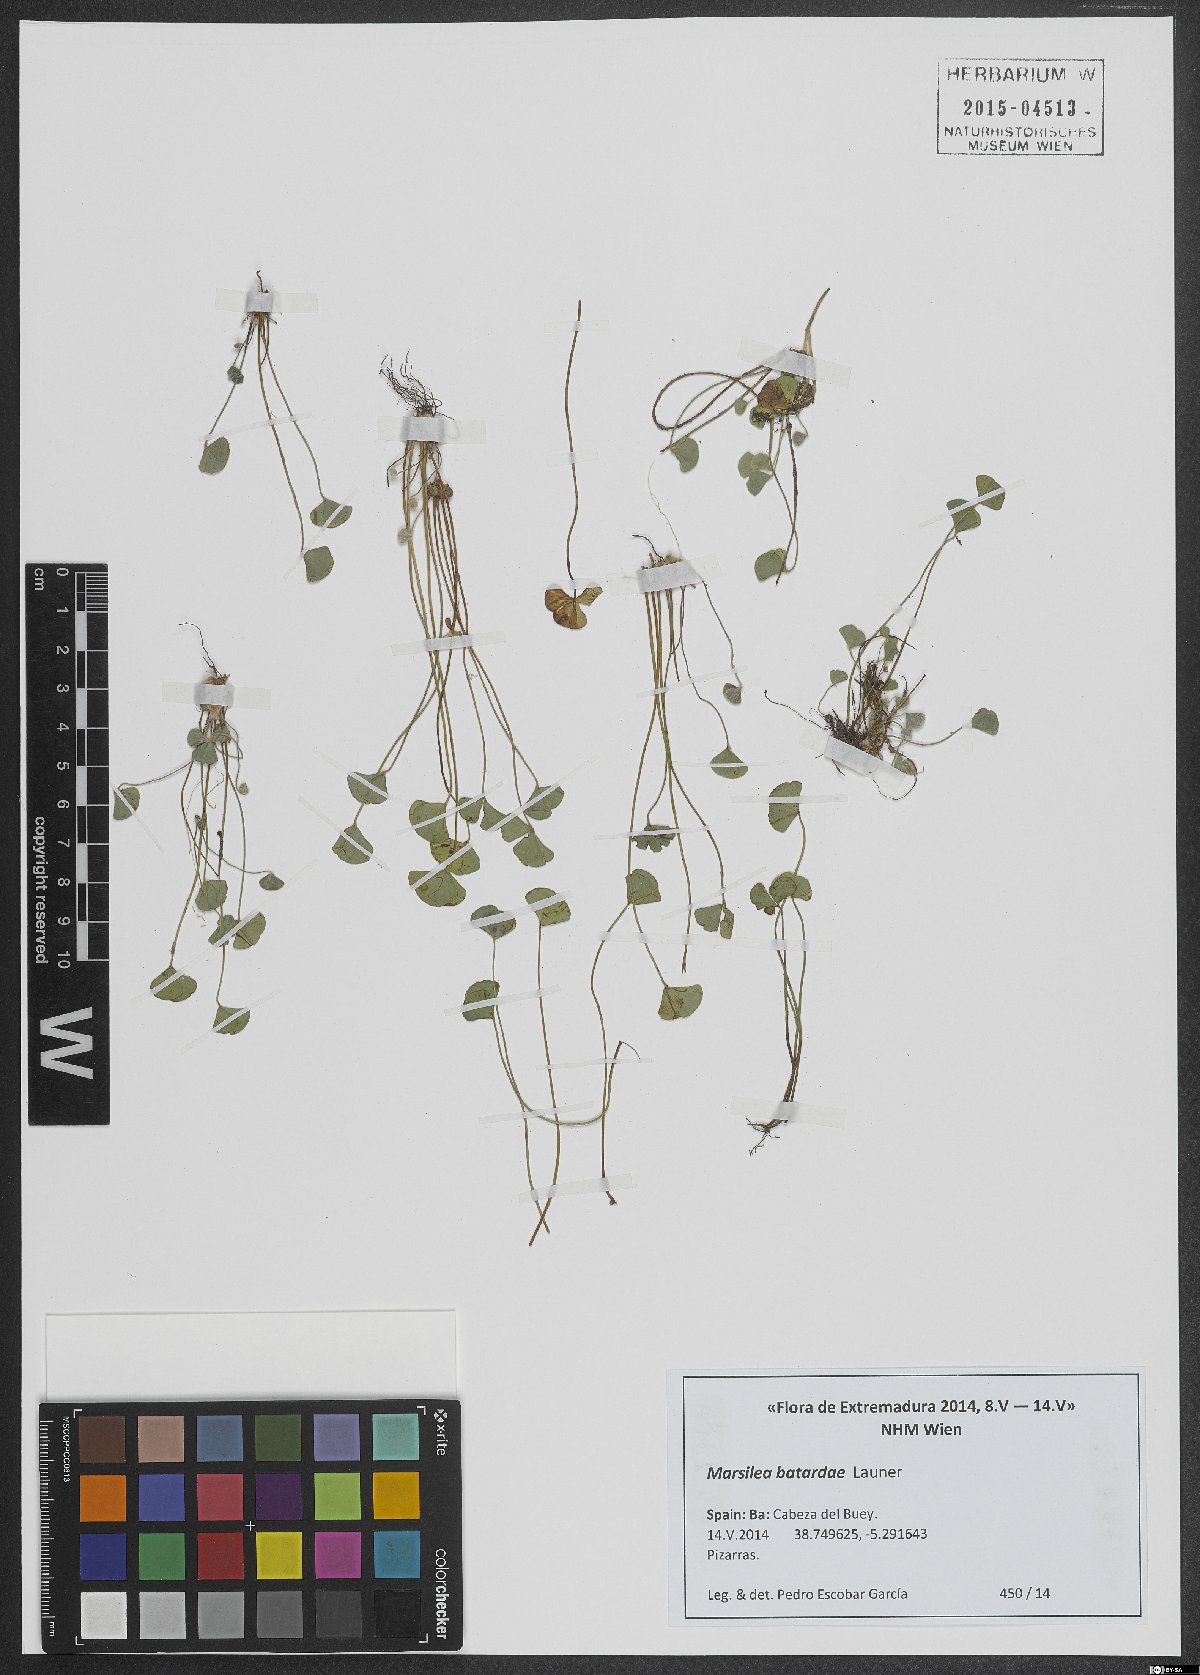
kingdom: Plantae
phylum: Tracheophyta
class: Polypodiopsida
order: Salviniales
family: Marsileaceae
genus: Marsilea
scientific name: Marsilea batardae
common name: Lusitanian water clover
